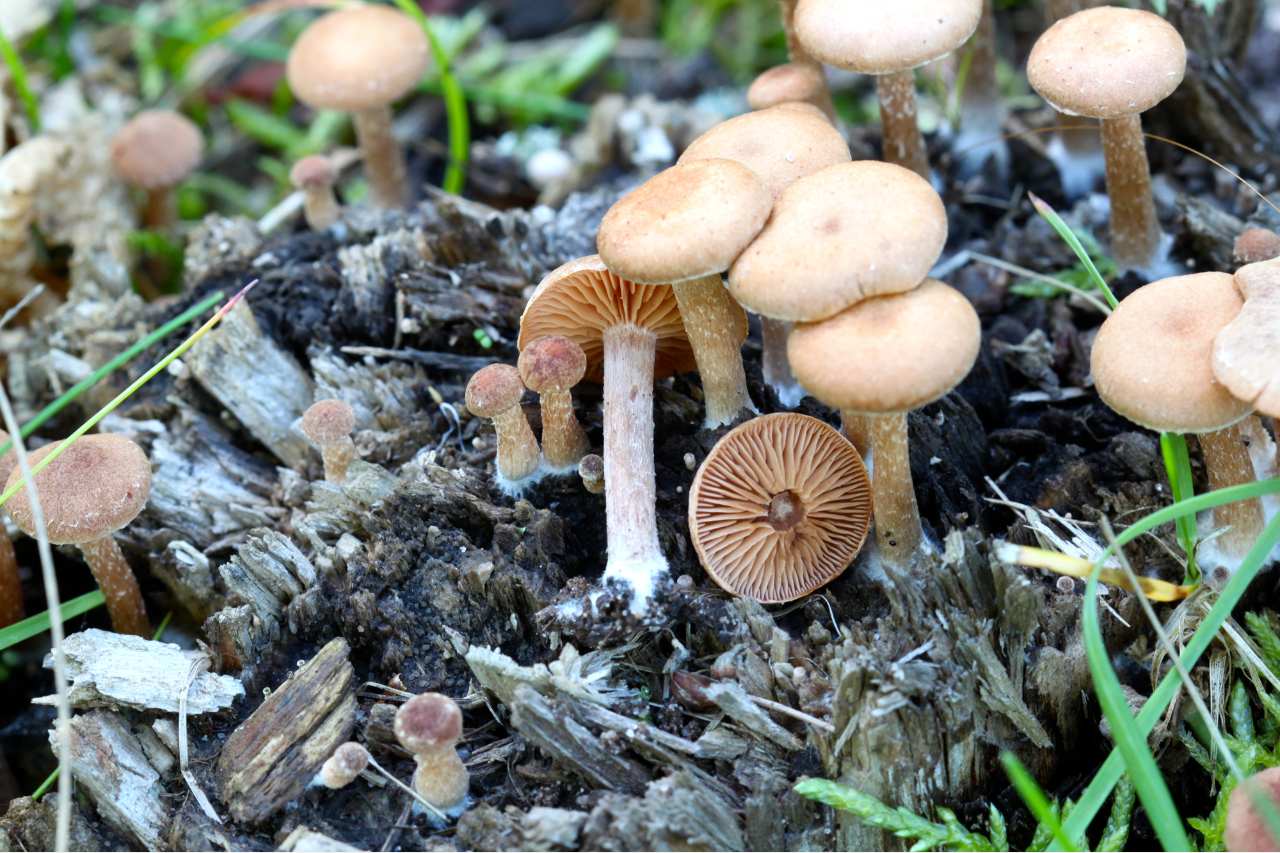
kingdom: Fungi
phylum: Basidiomycota
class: Agaricomycetes
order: Agaricales
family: Tubariaceae
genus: Tubaria
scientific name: Tubaria conspersa
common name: bleg fnughat
